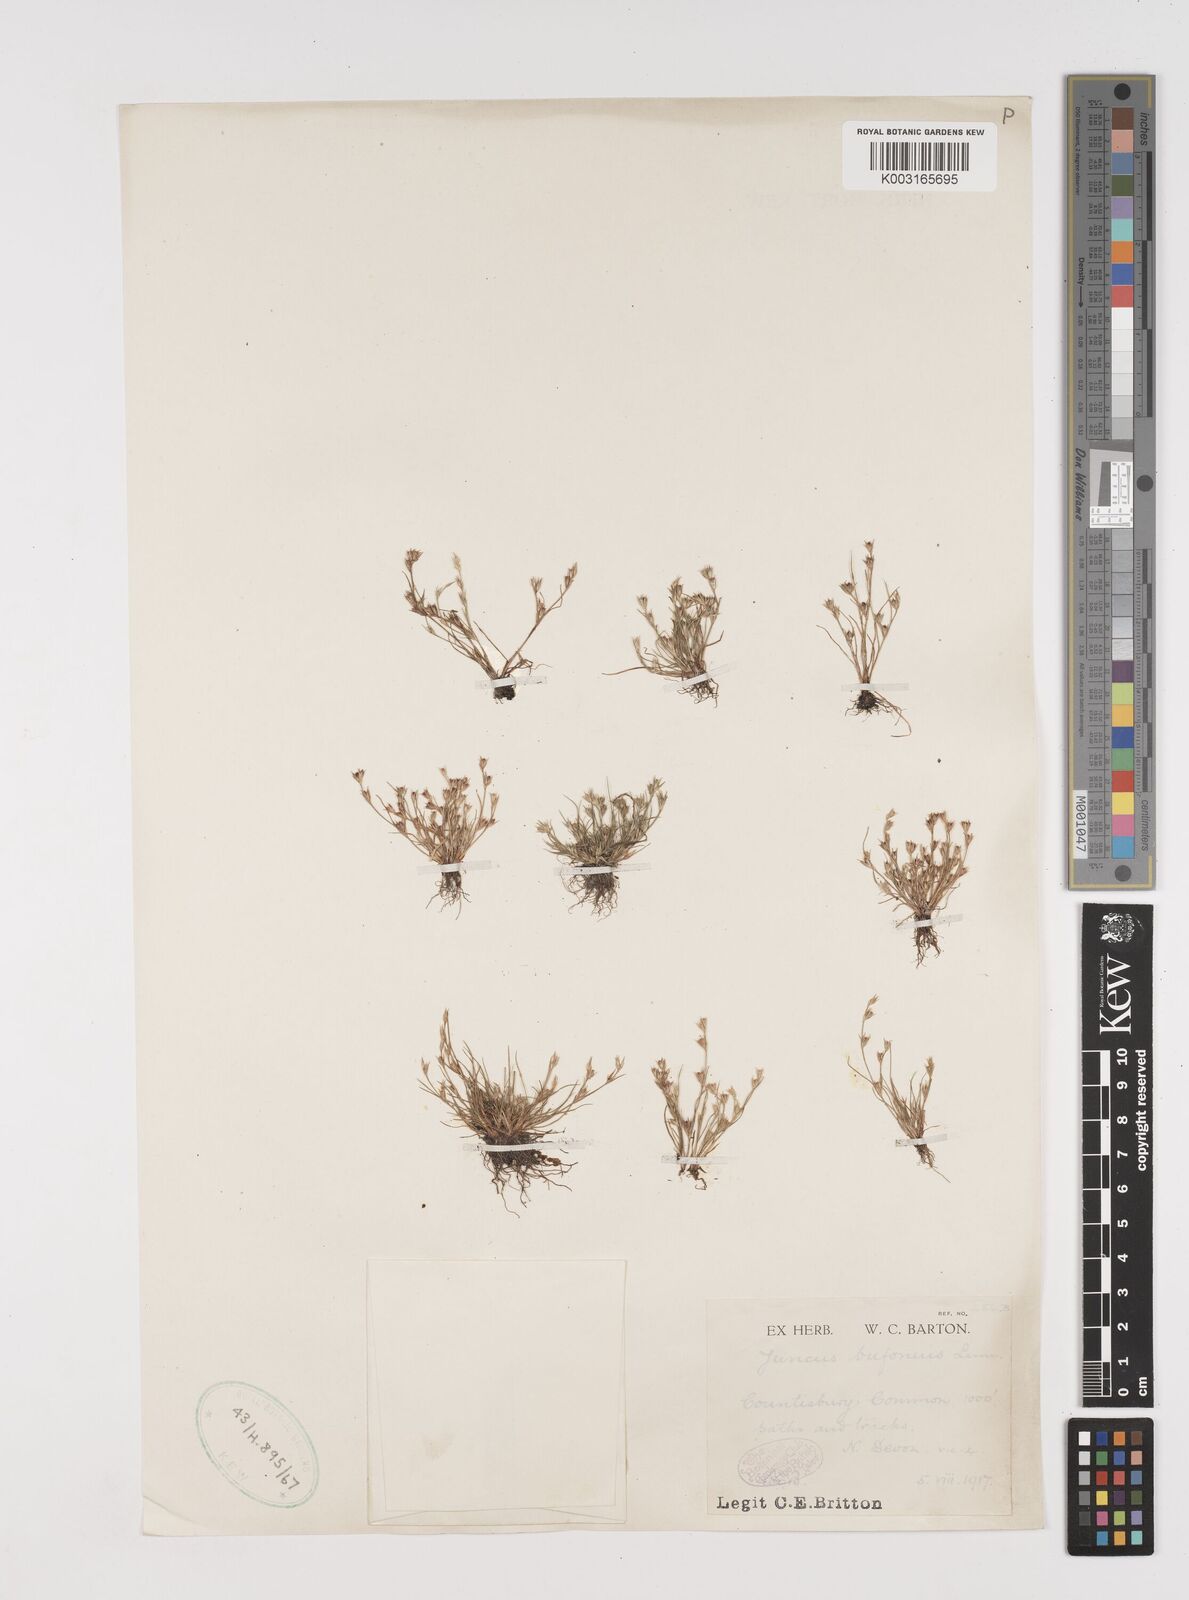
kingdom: Plantae
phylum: Tracheophyta
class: Liliopsida
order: Poales
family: Juncaceae
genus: Juncus
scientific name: Juncus bufonius
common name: Toad rush
